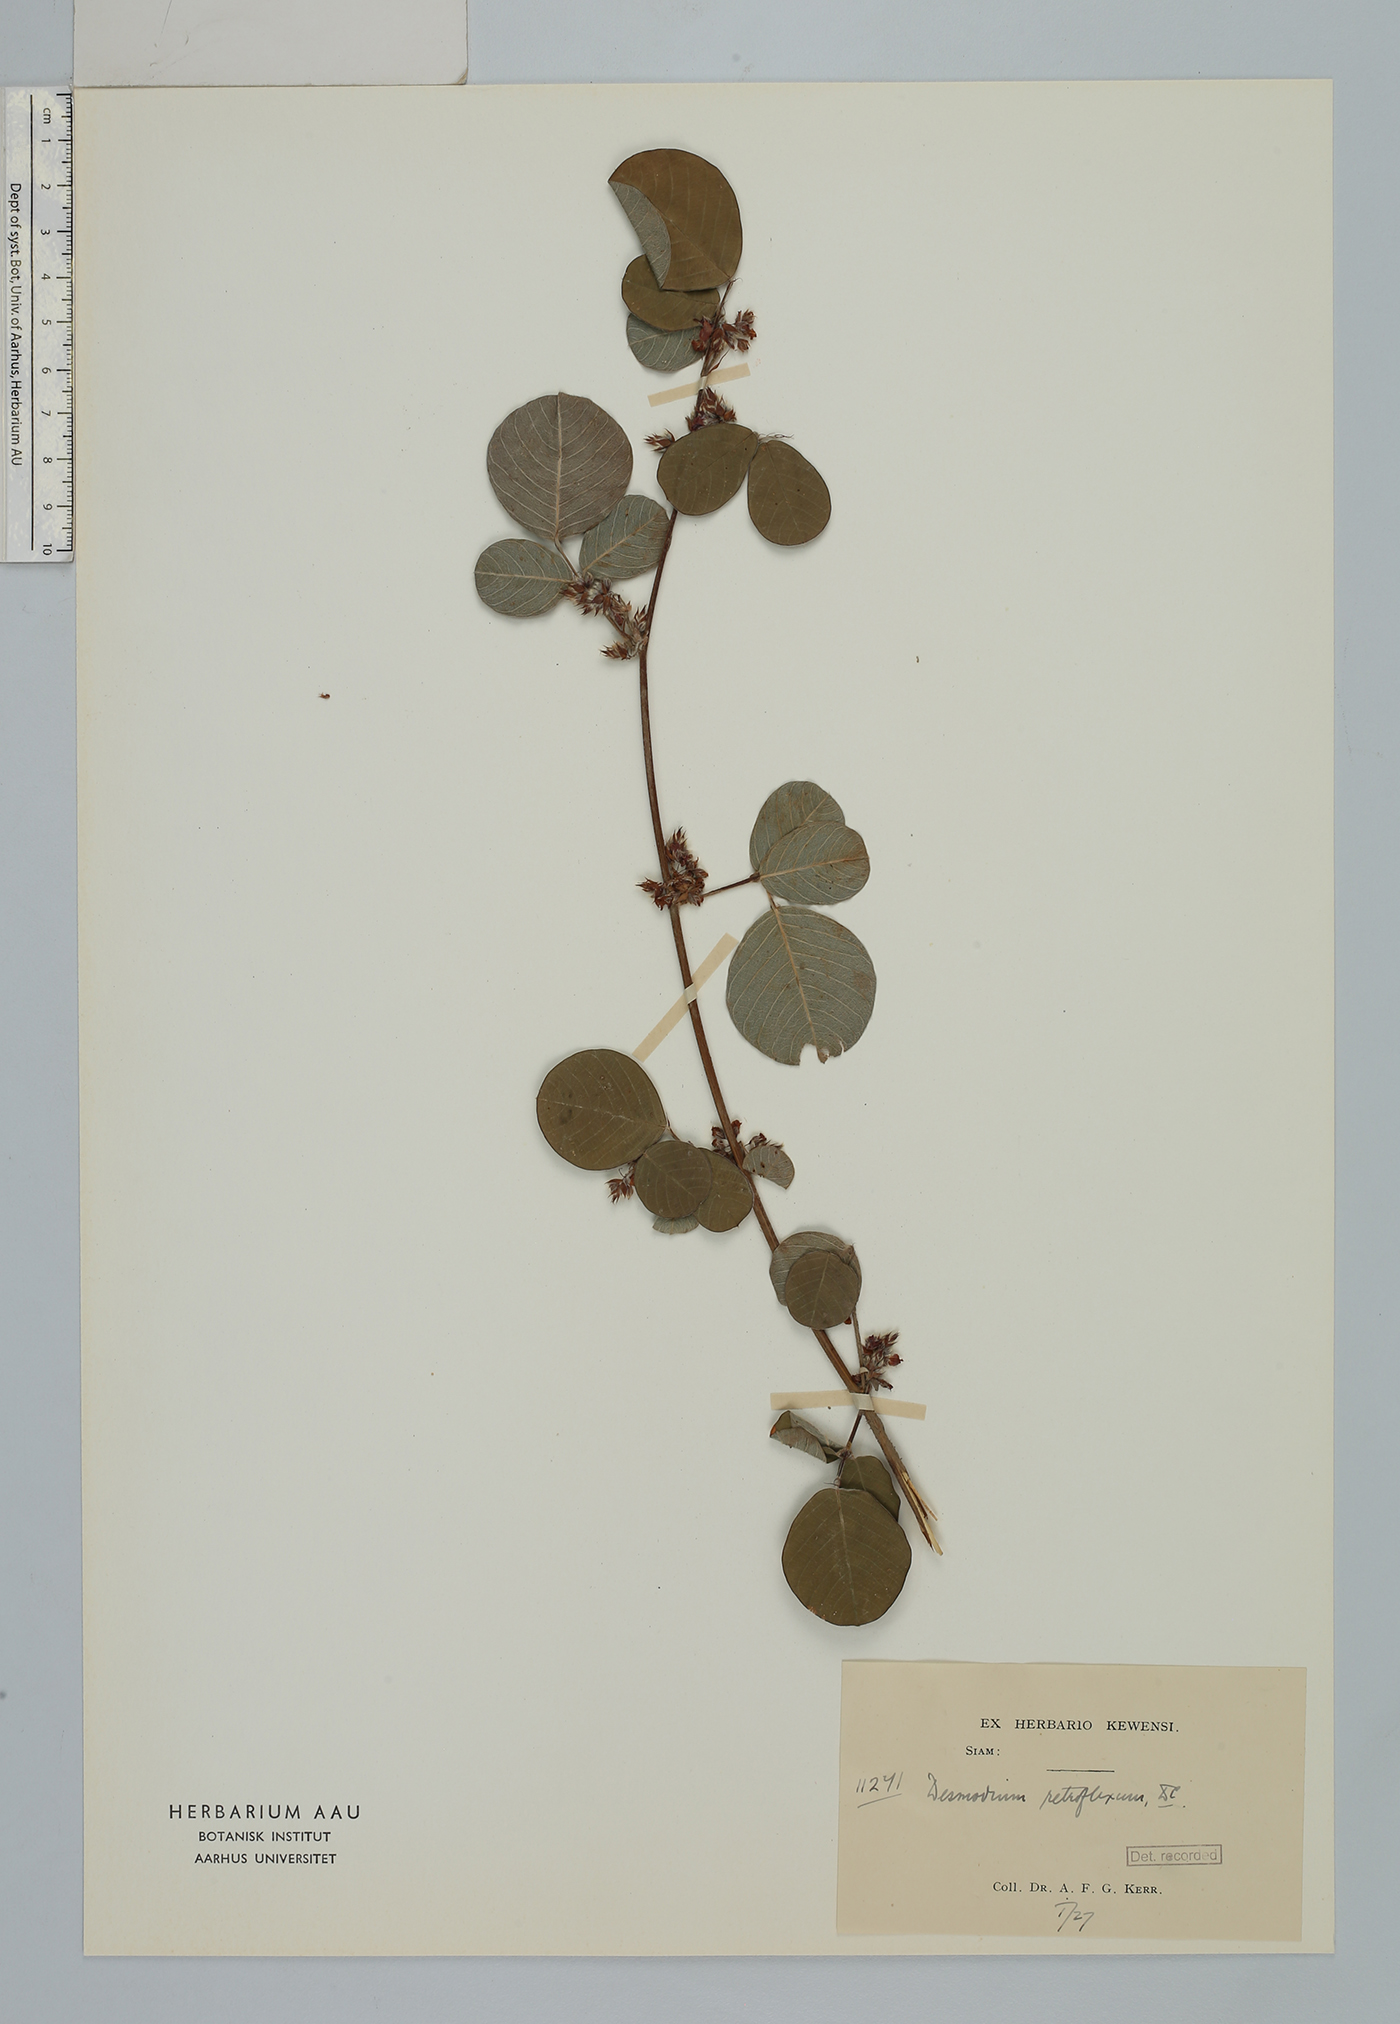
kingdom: Plantae
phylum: Tracheophyta
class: Magnoliopsida
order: Fabales
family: Fabaceae
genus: Grona
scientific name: Grona styracifolia
